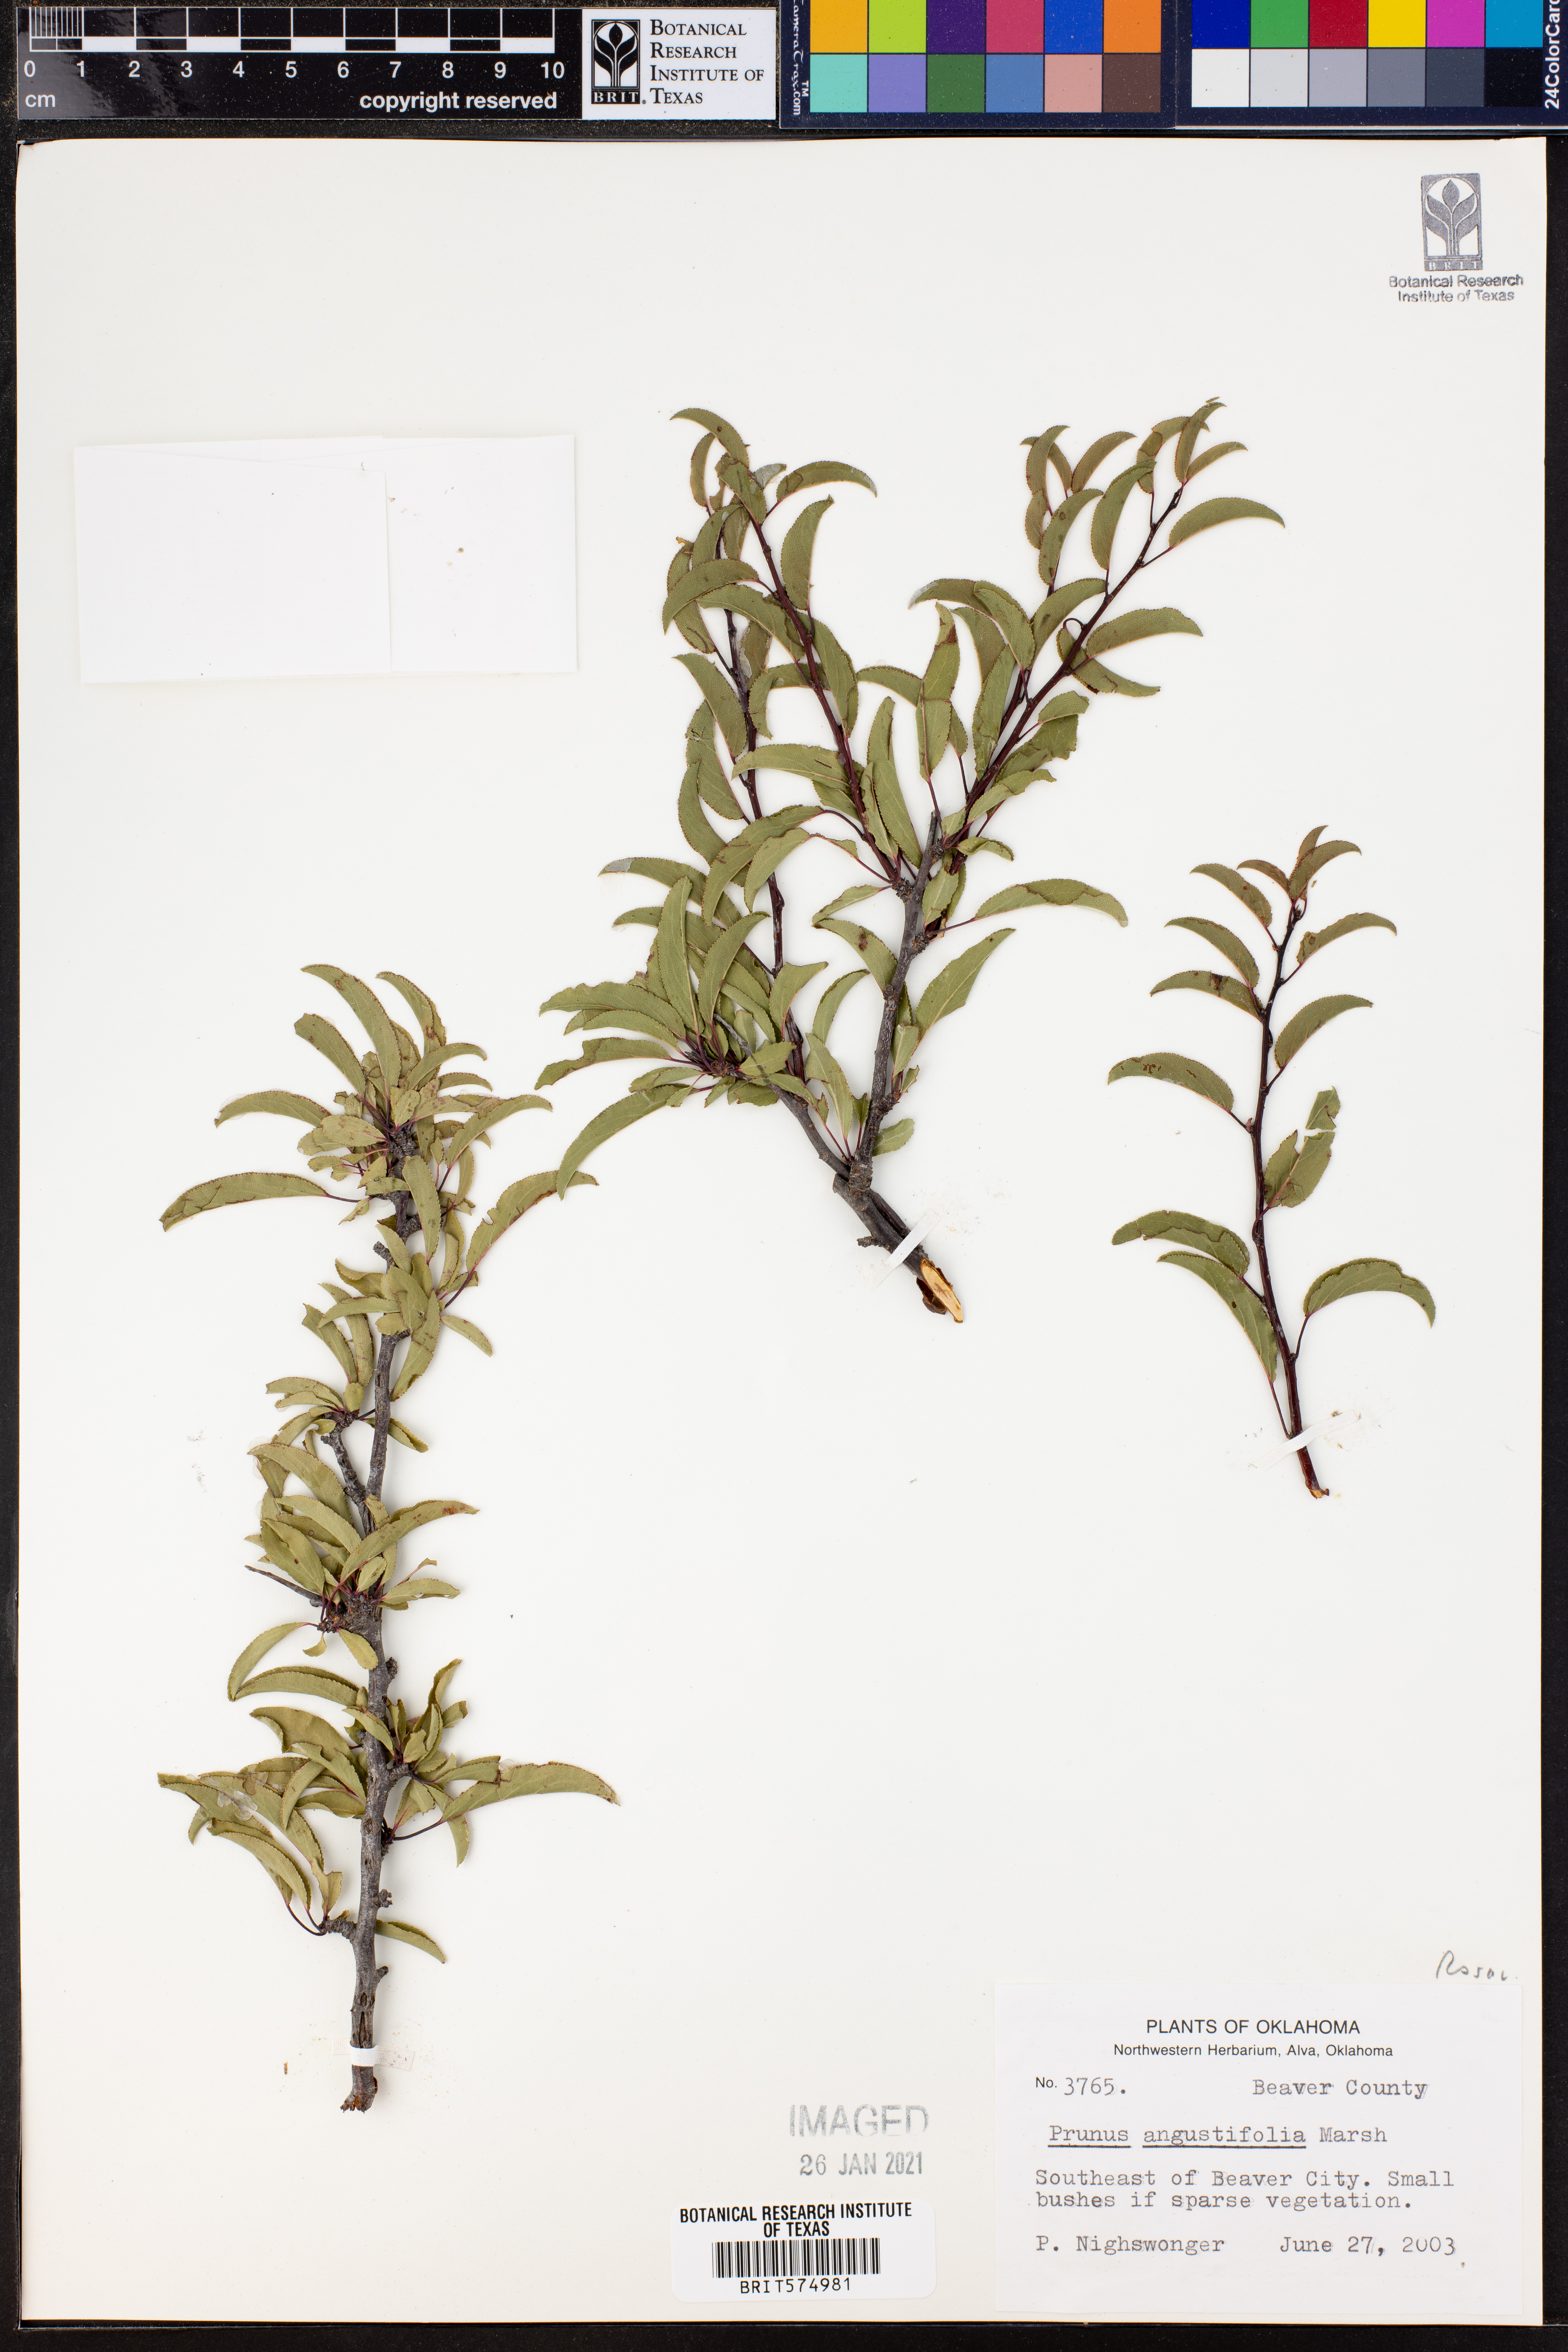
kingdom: Plantae
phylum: Tracheophyta
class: Magnoliopsida
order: Rosales
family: Rosaceae
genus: Prunus
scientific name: Prunus angustifolia
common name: Cherokee plum
